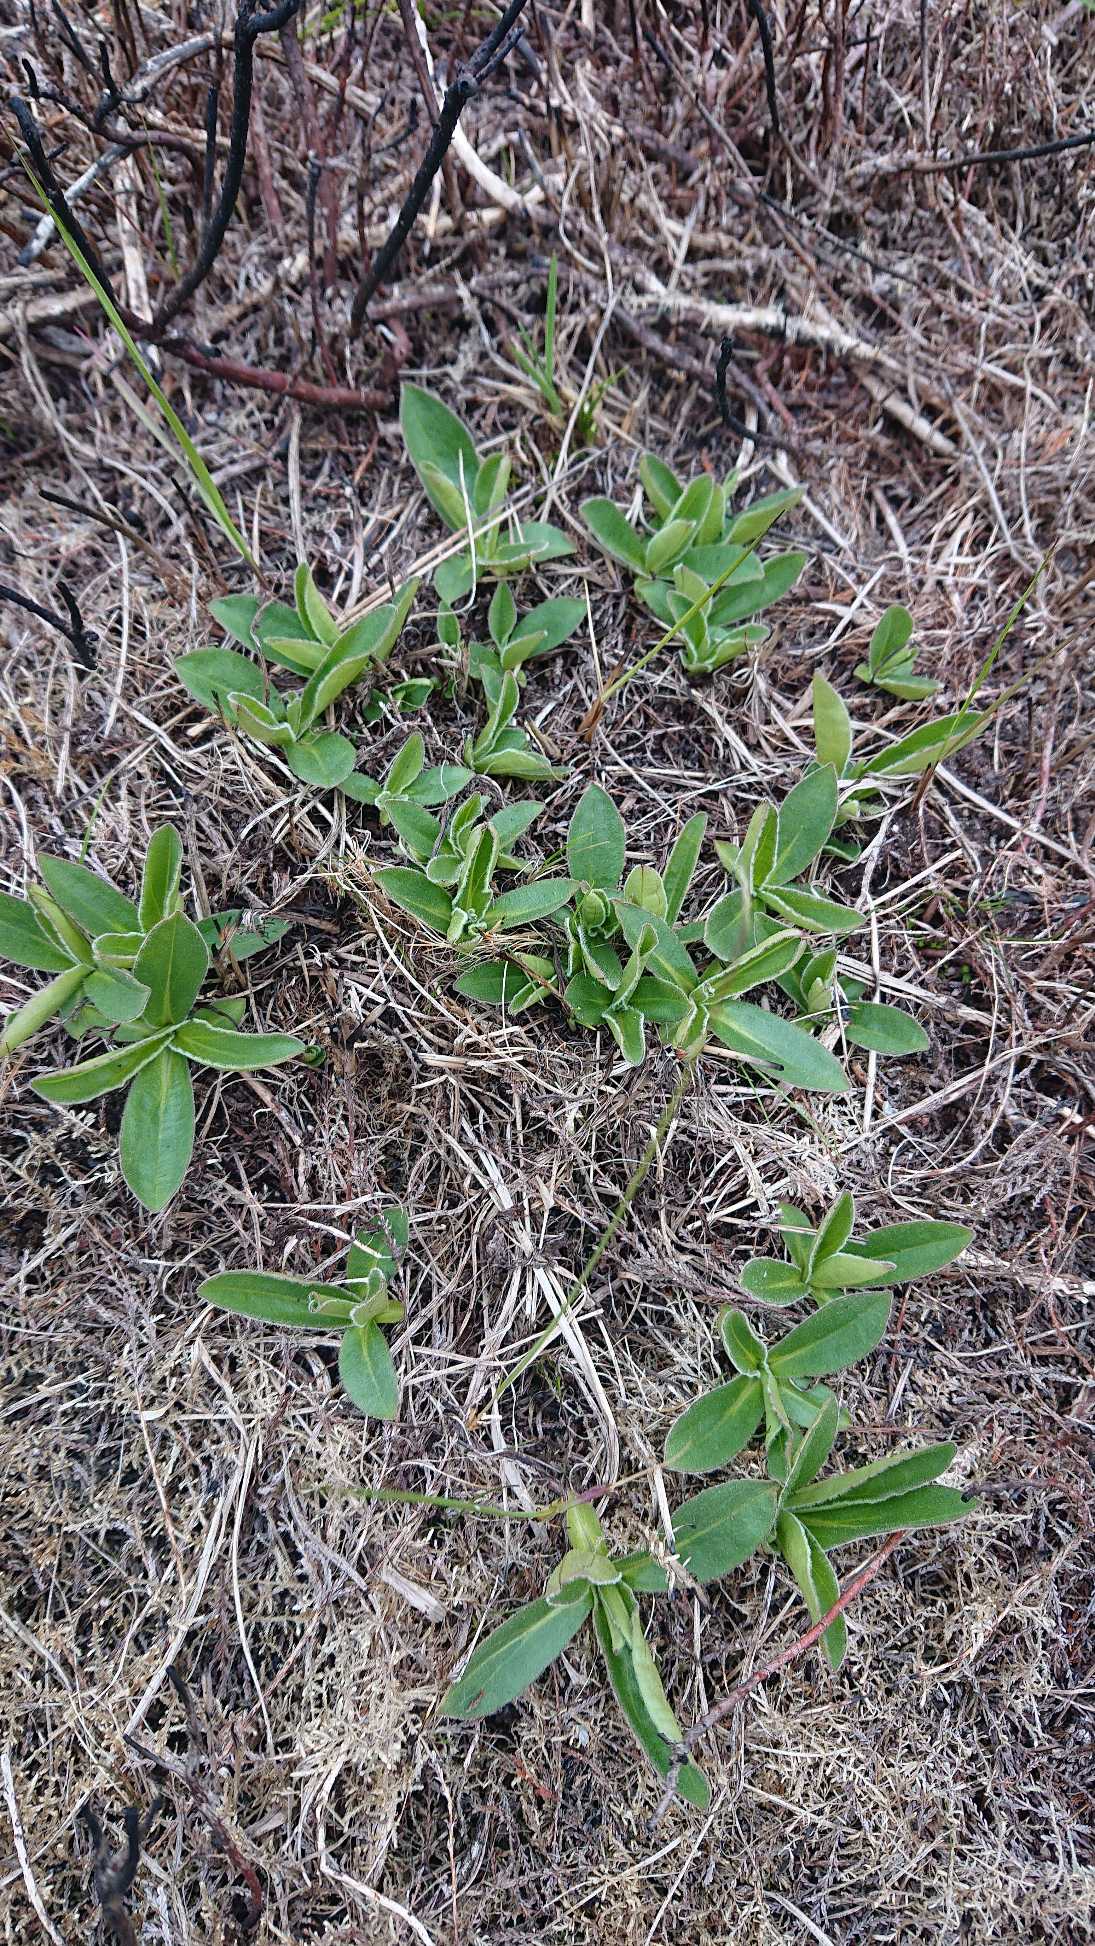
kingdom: Plantae
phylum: Tracheophyta
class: Magnoliopsida
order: Asterales
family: Asteraceae
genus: Arnica
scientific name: Arnica montana
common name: Guldblomme
